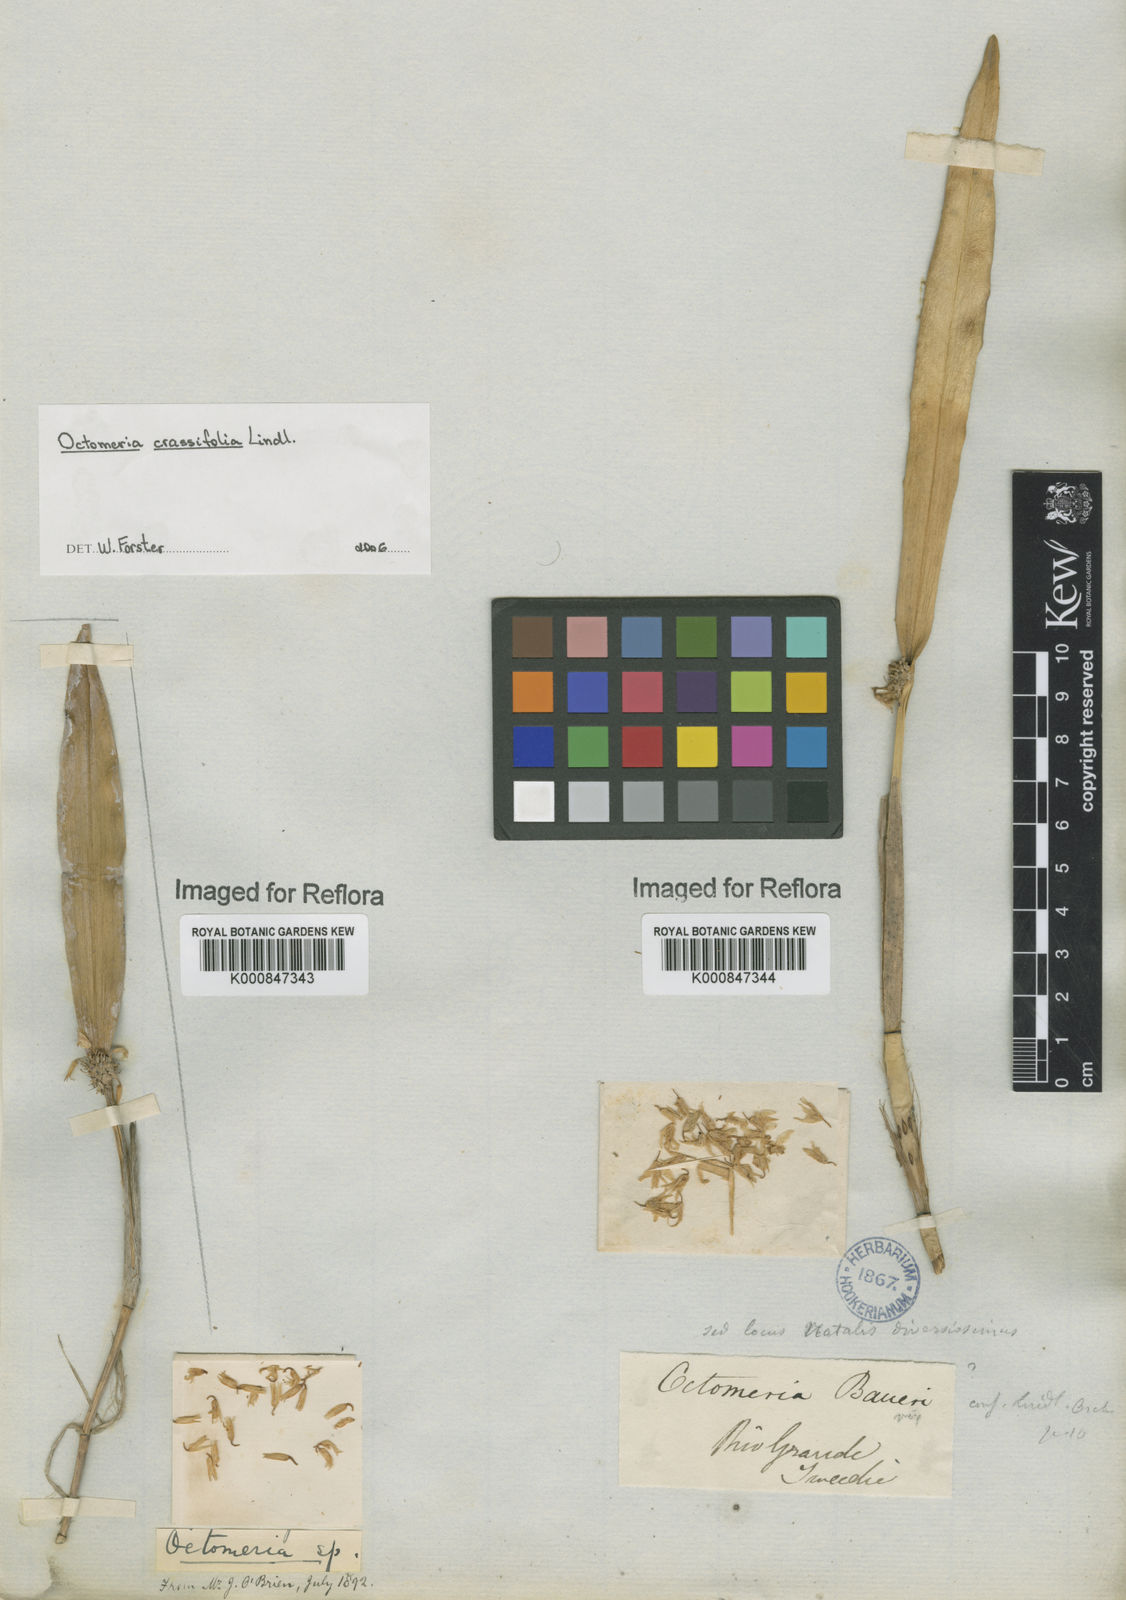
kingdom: Plantae
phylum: Tracheophyta
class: Liliopsida
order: Asparagales
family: Orchidaceae
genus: Octomeria
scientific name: Octomeria crassifolia
